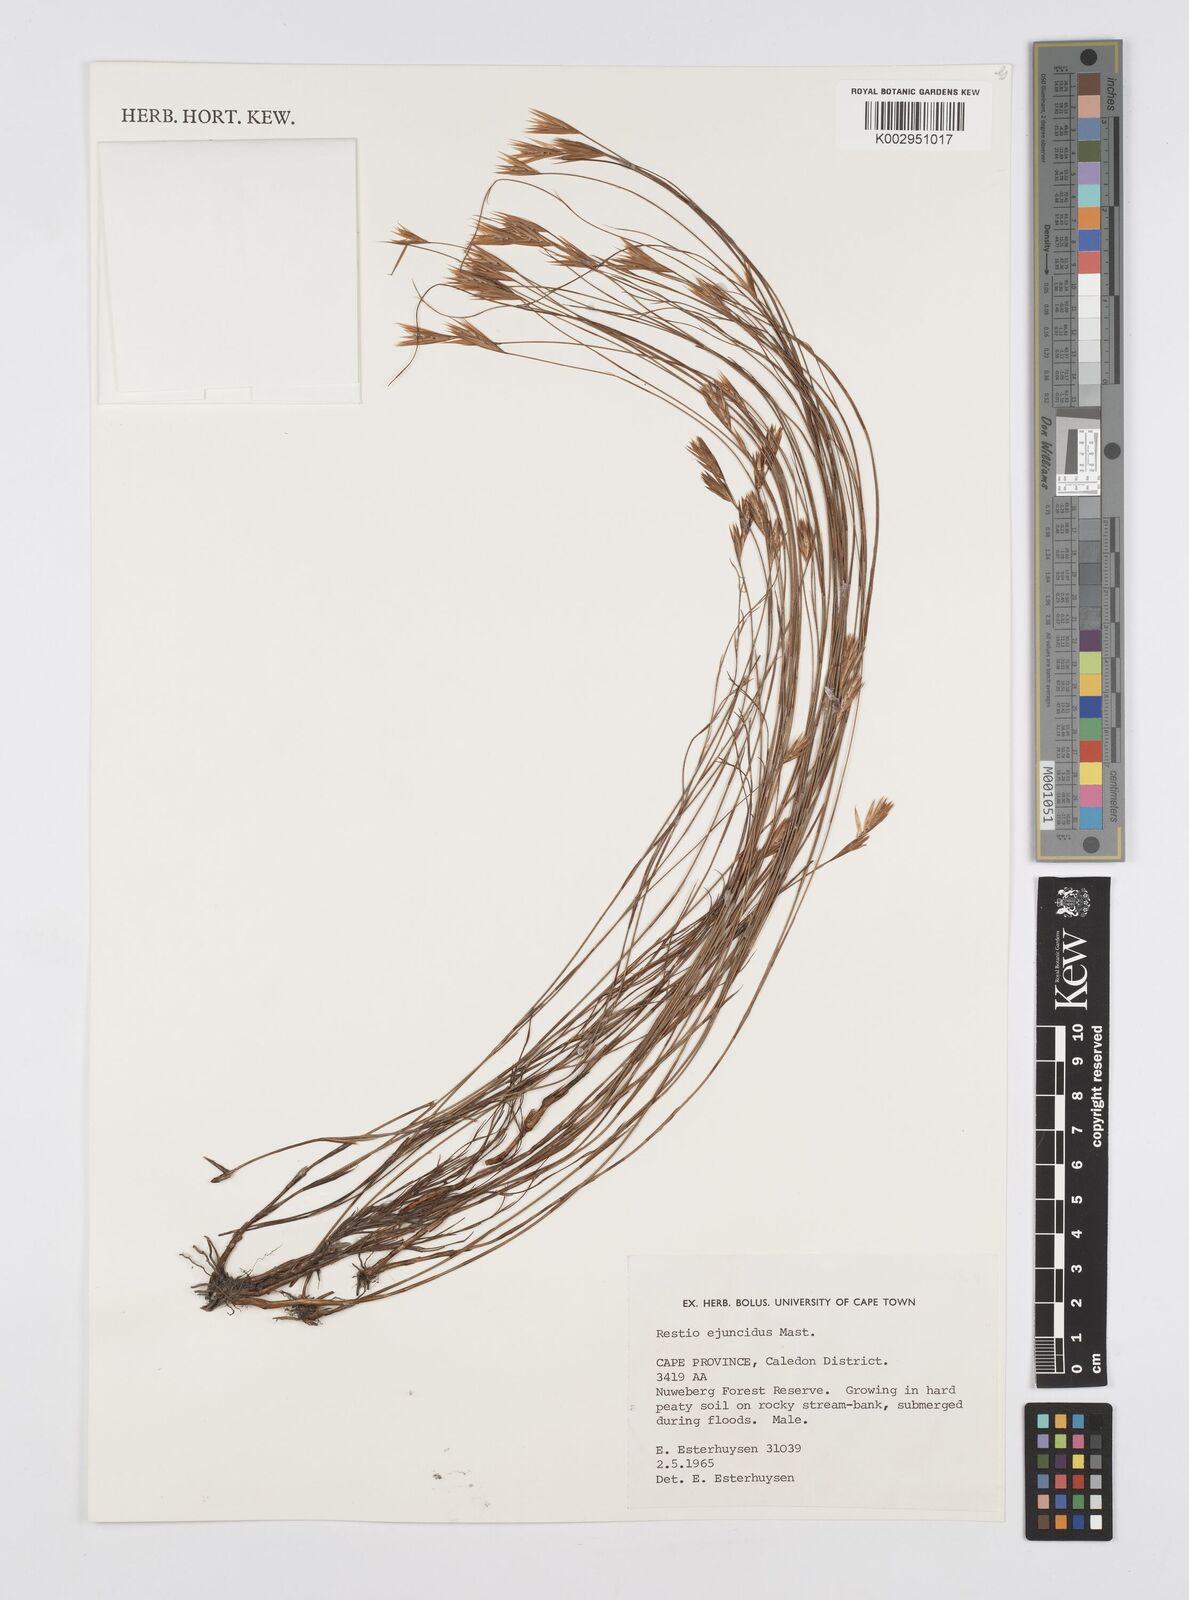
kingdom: Plantae
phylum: Tracheophyta
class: Liliopsida
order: Poales
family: Restionaceae
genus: Restio
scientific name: Restio ejuncidus
